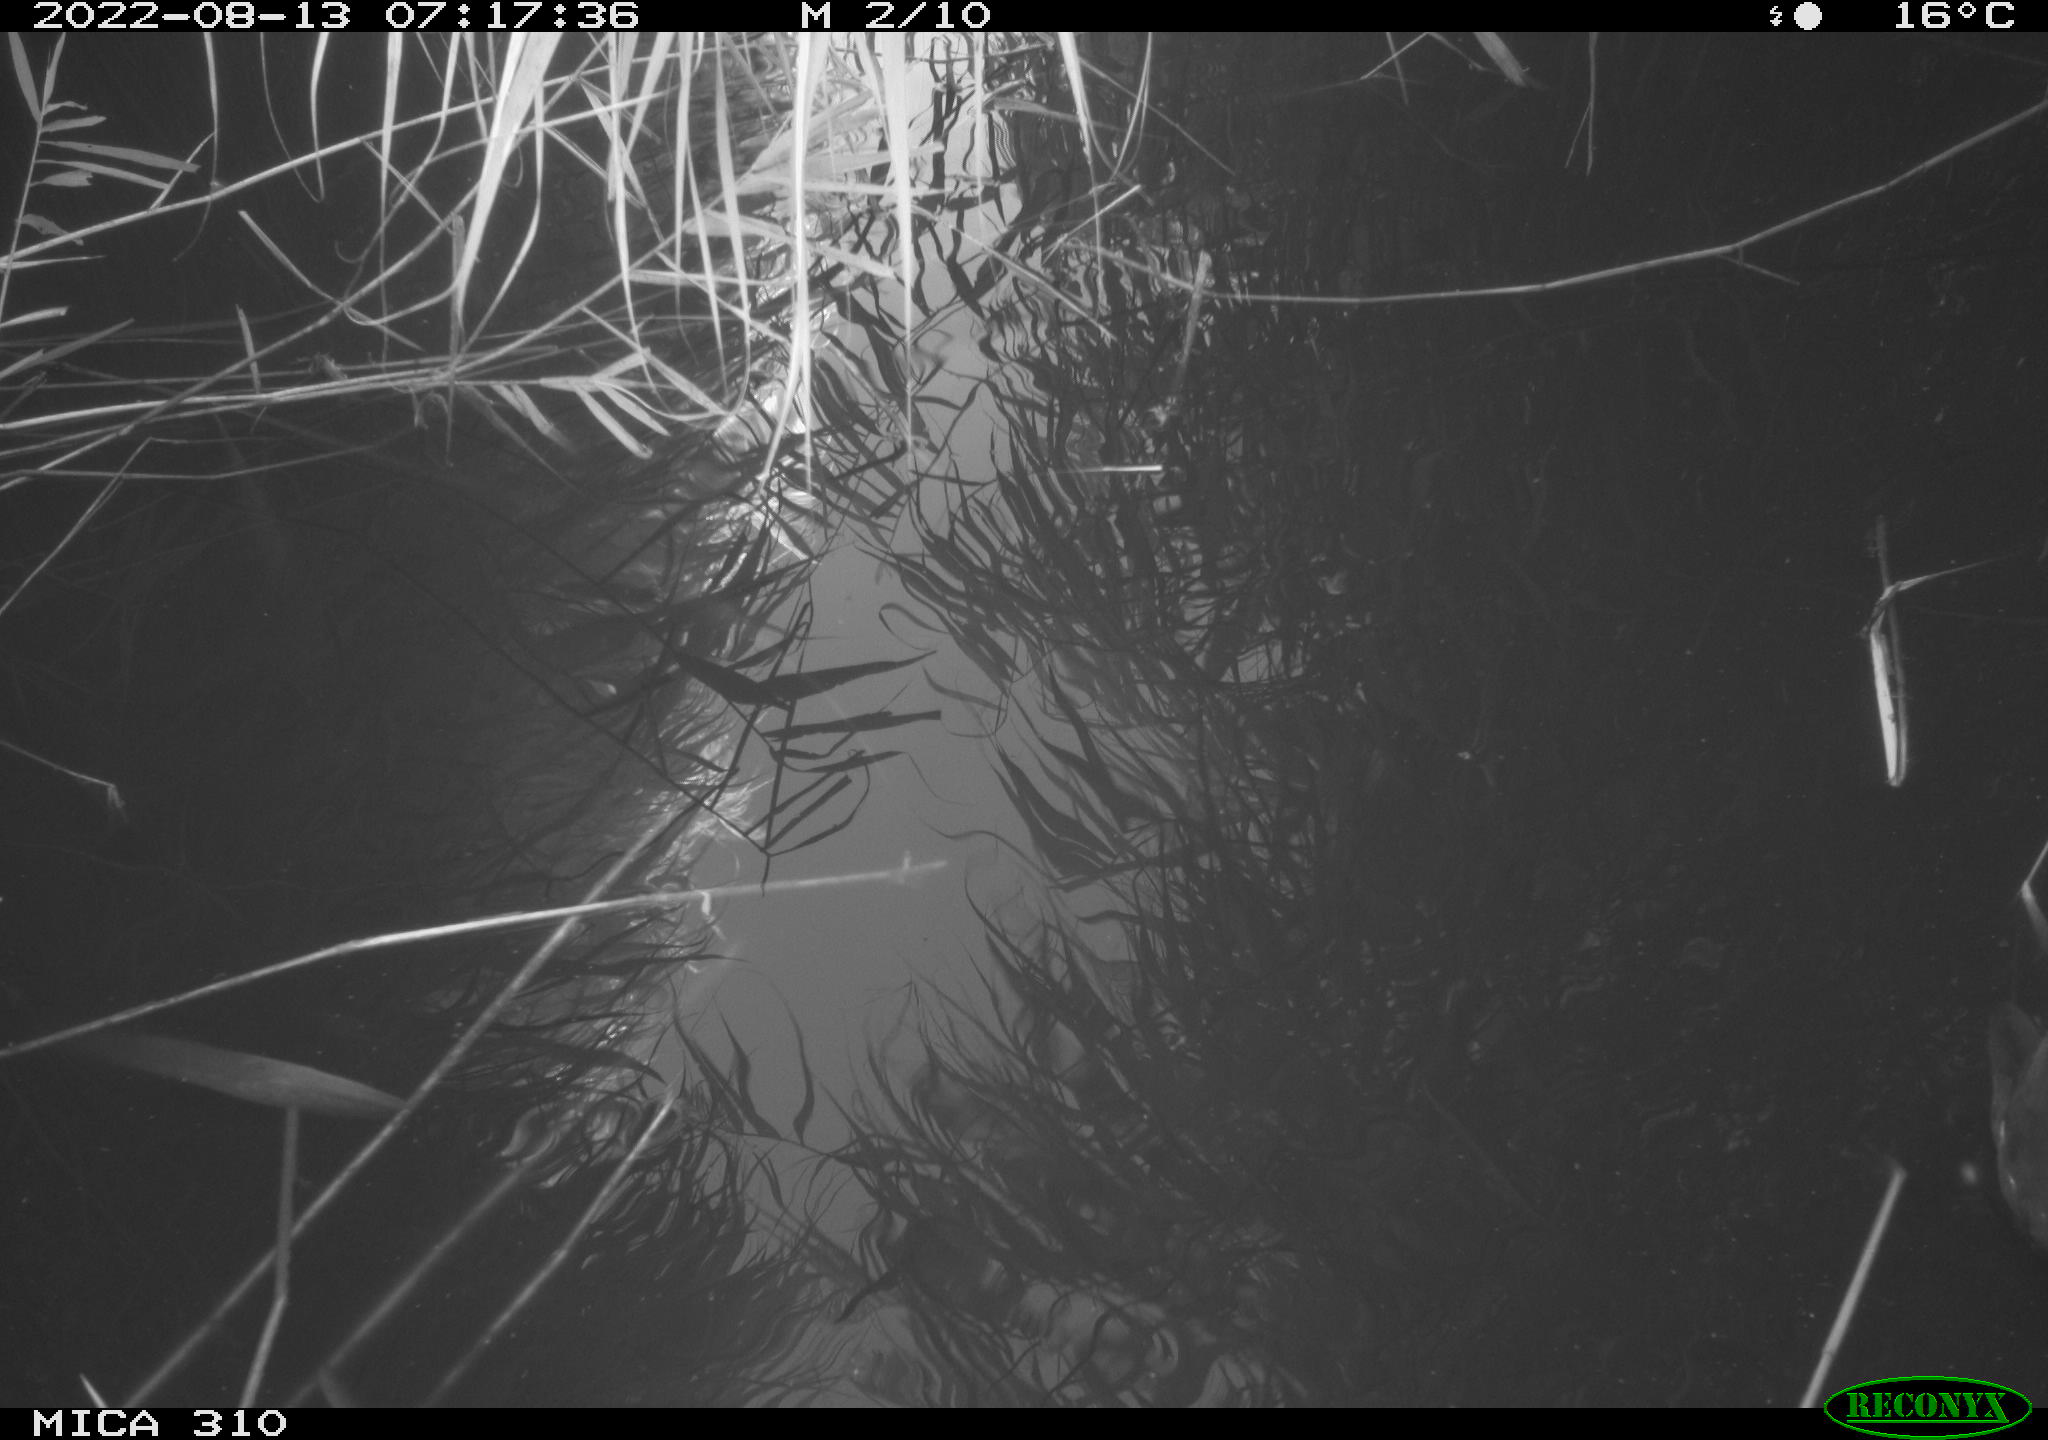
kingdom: Animalia
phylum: Chordata
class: Aves
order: Gruiformes
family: Rallidae
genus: Gallinula
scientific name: Gallinula chloropus
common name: Common moorhen
